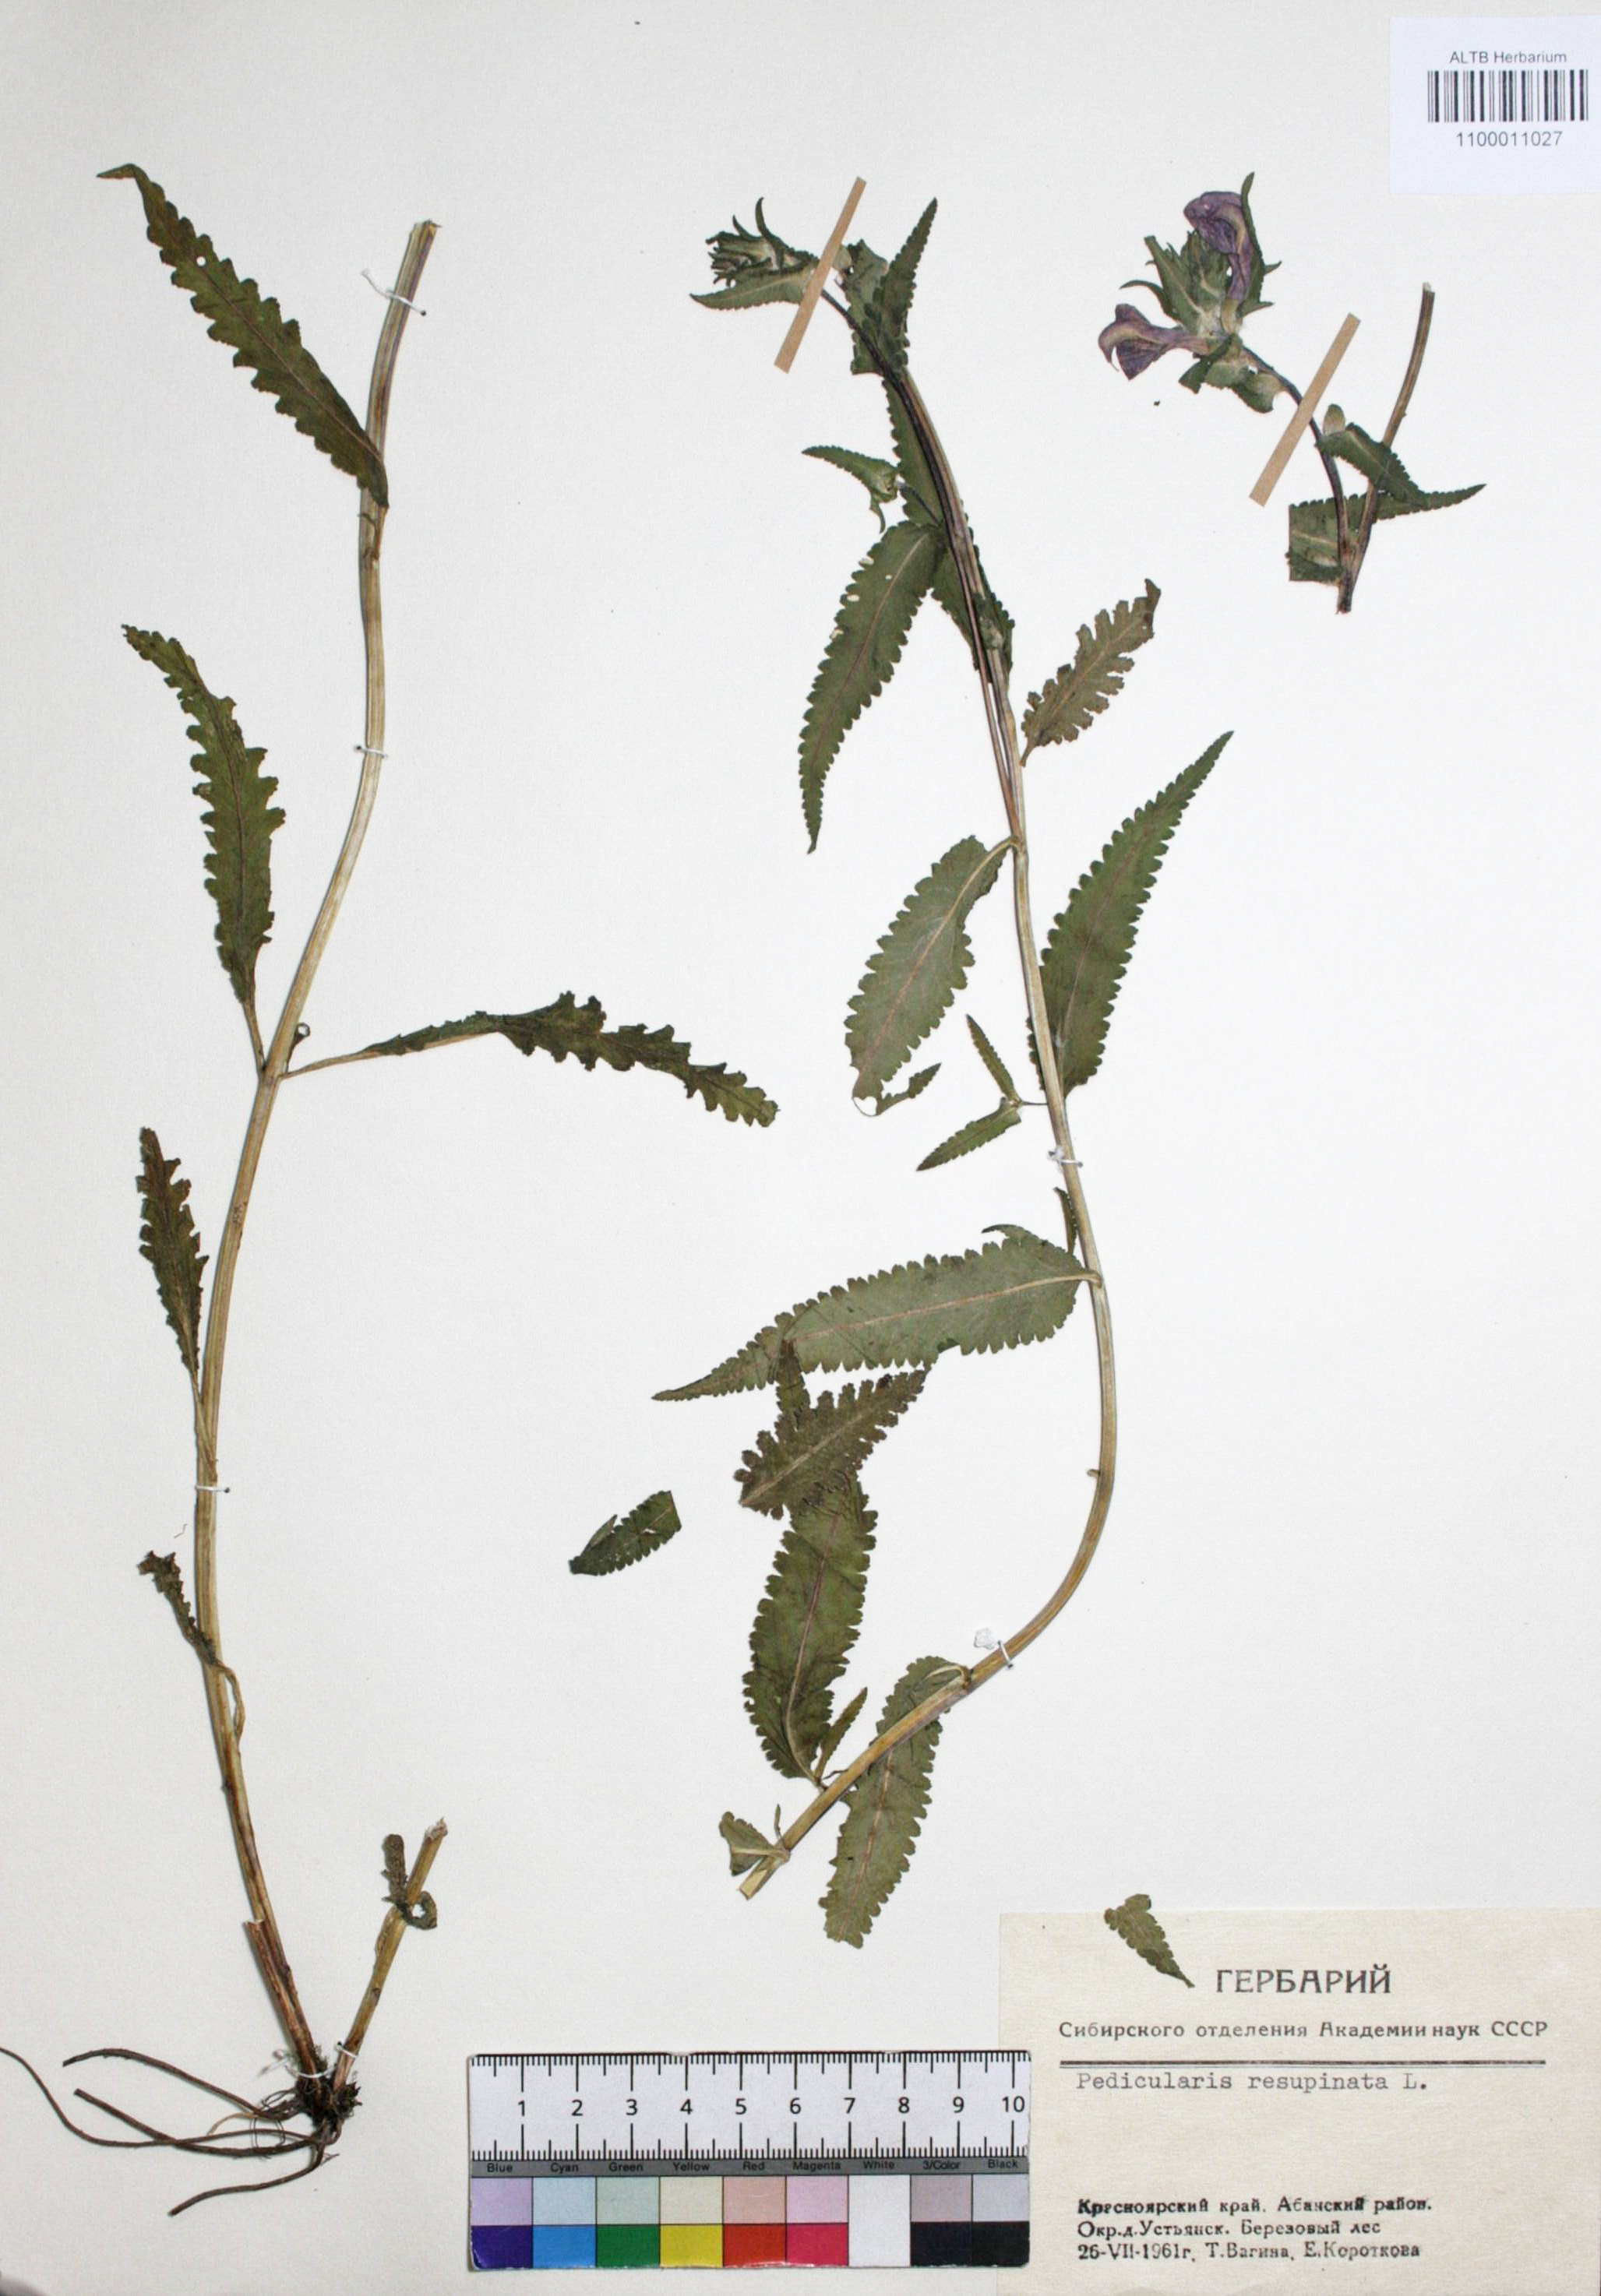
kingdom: Plantae
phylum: Tracheophyta
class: Magnoliopsida
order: Lamiales
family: Orobanchaceae
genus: Pedicularis
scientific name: Pedicularis resupinata
